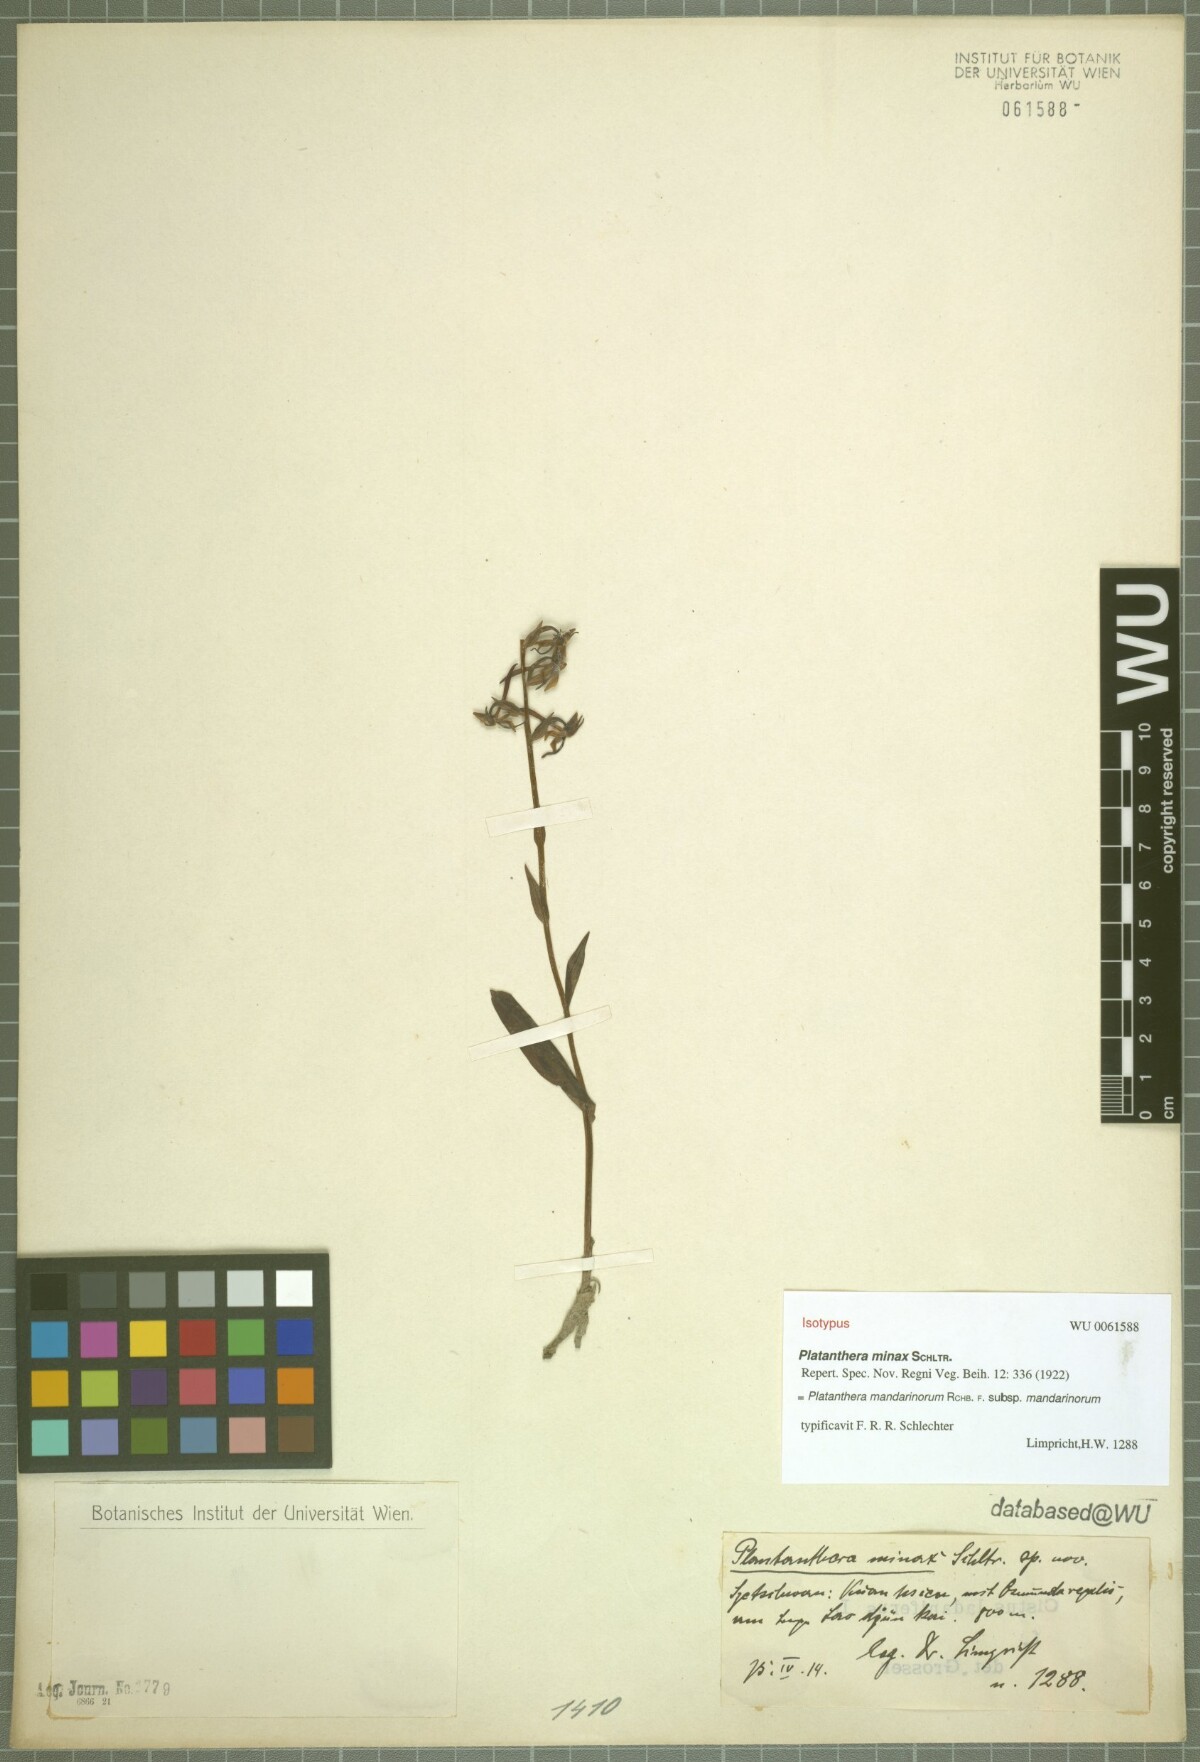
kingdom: Plantae
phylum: Tracheophyta
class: Liliopsida
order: Asparagales
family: Orchidaceae
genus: Platanthera
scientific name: Platanthera mandarinorum
